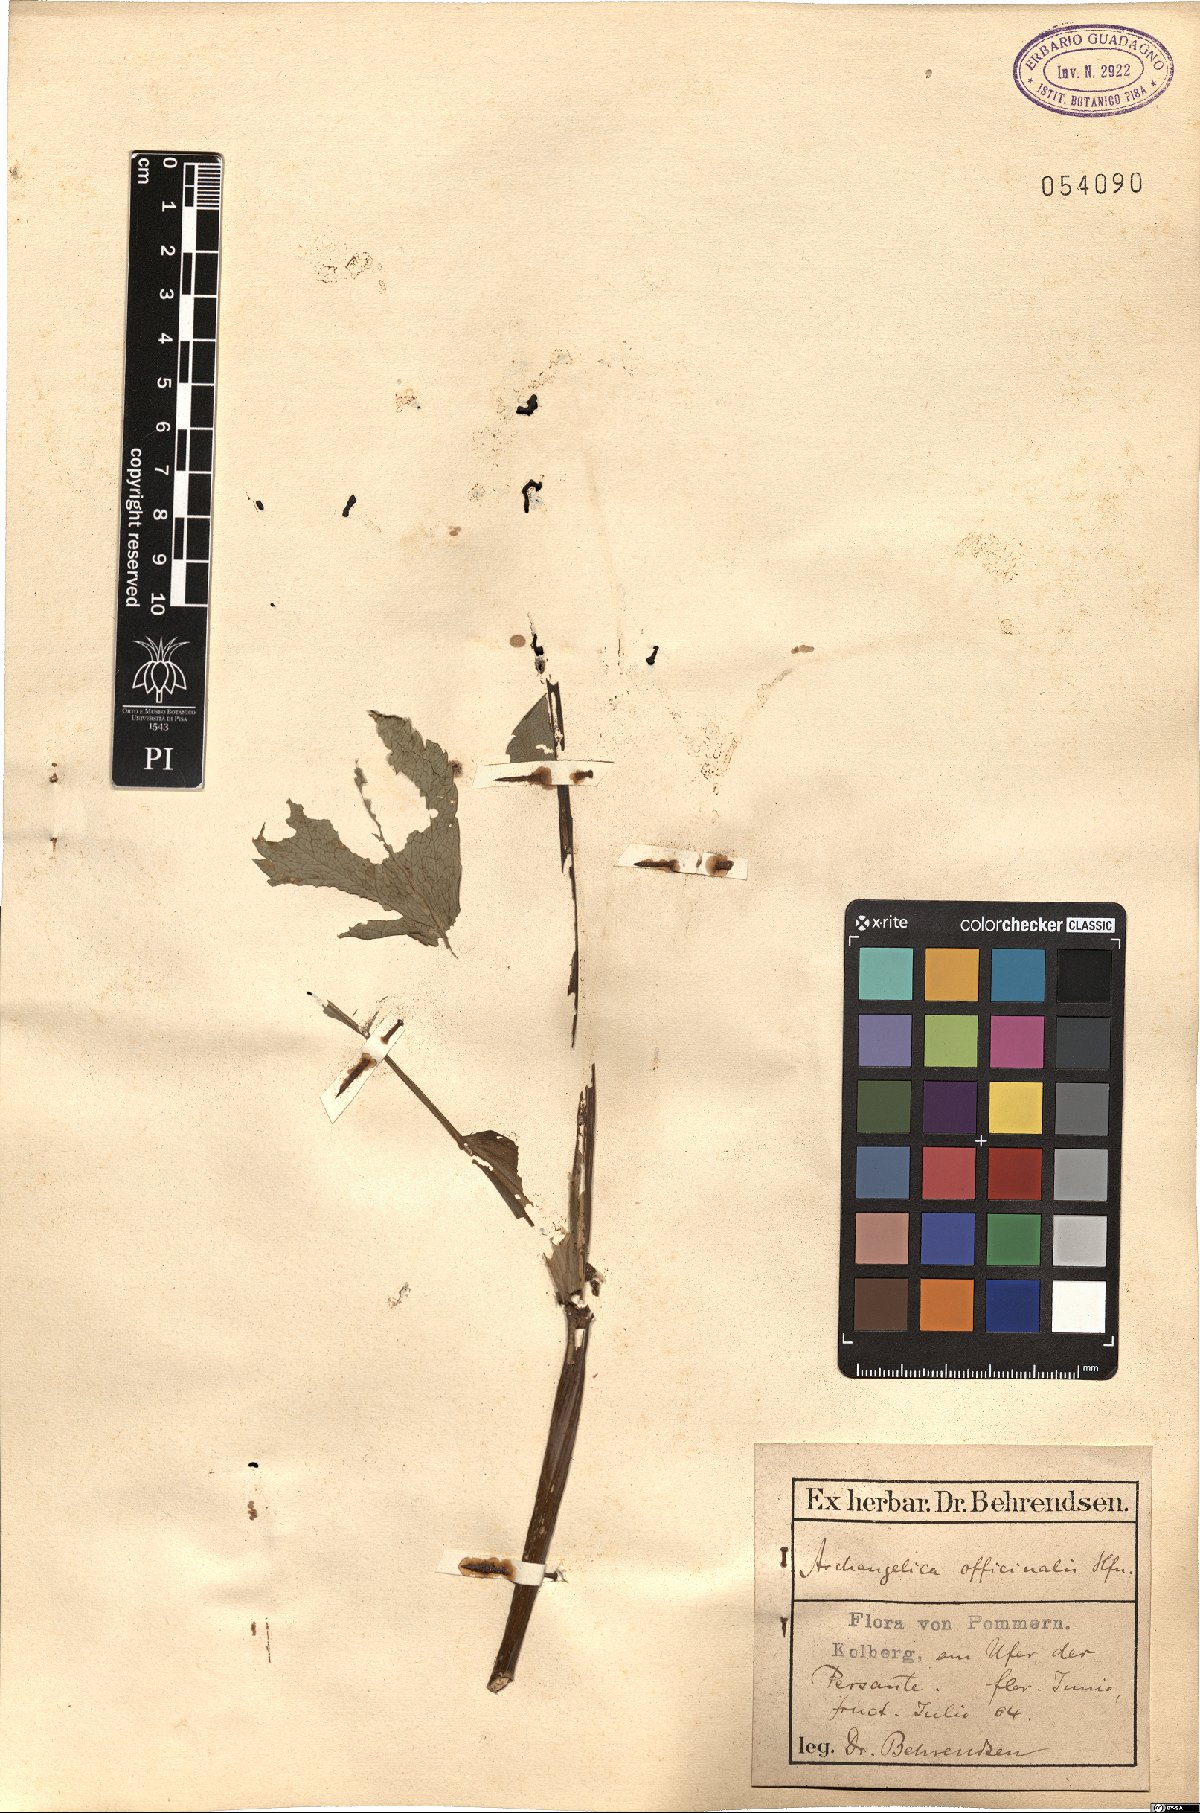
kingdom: Plantae
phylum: Tracheophyta
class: Magnoliopsida
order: Apiales
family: Apiaceae
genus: Angelica
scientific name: Angelica archangelica
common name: Garden angelica
